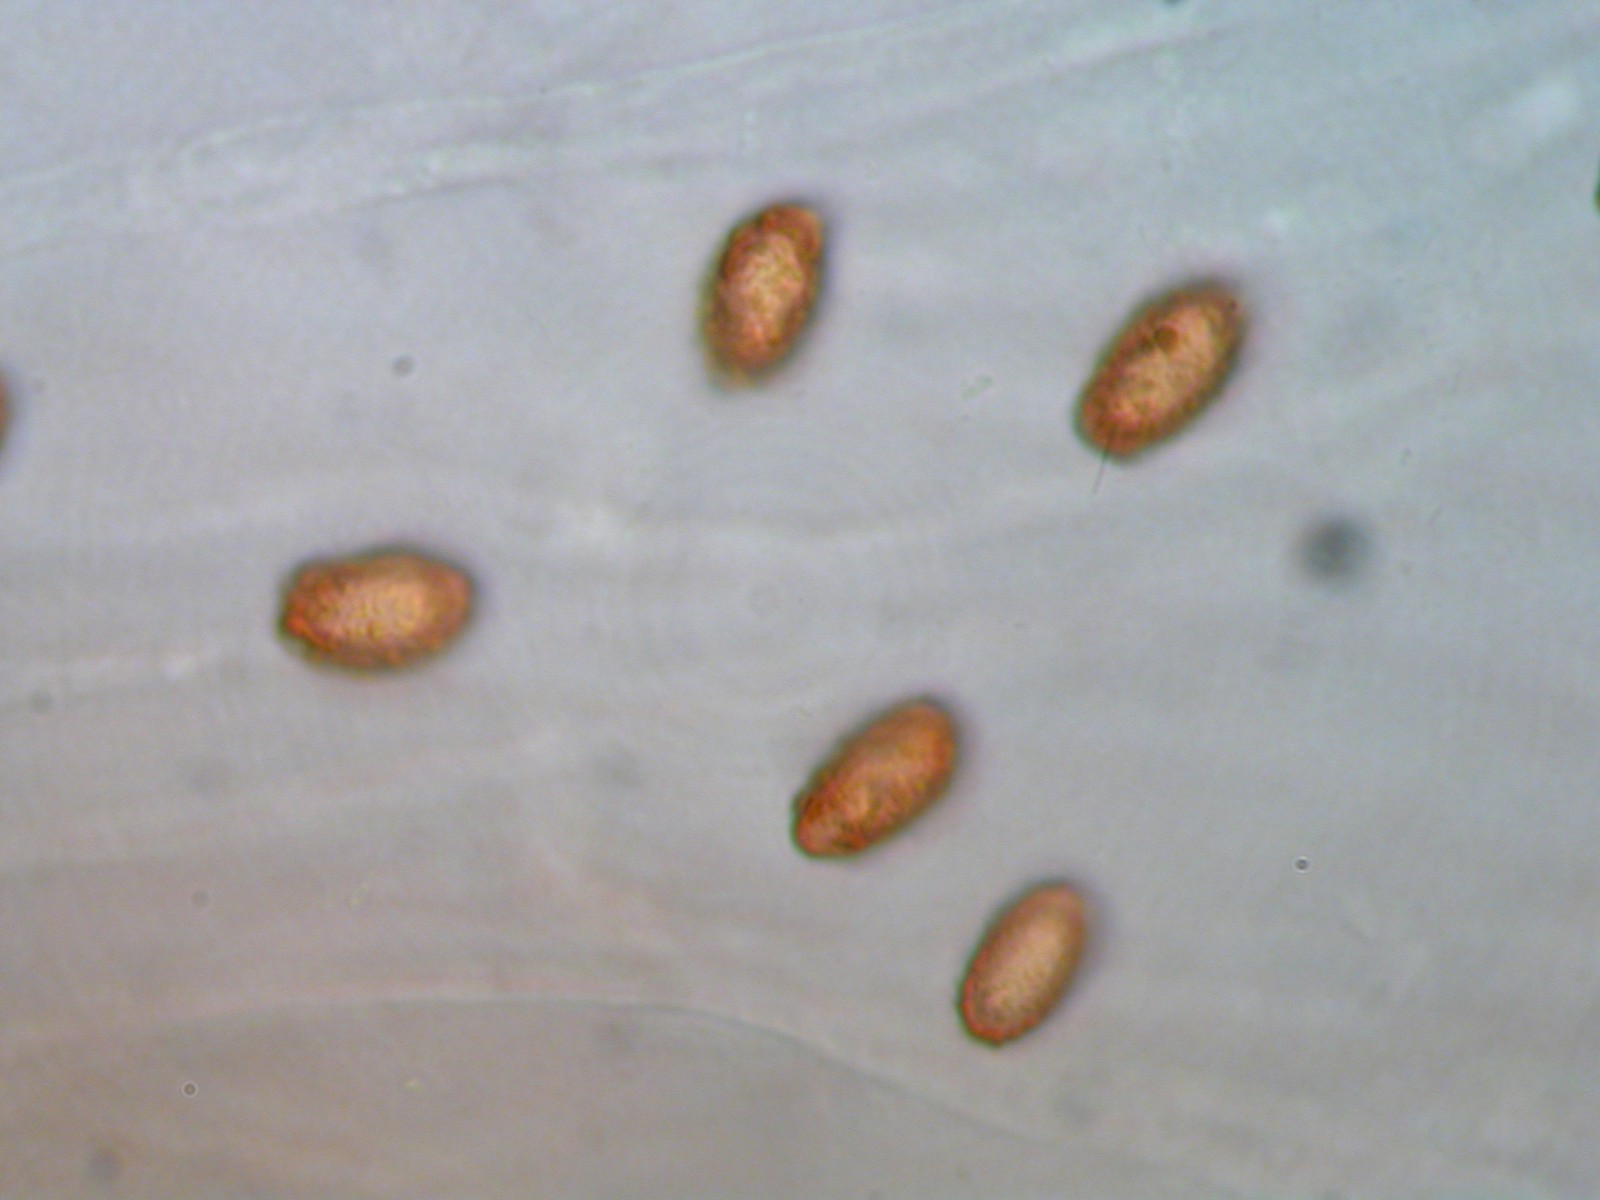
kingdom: Fungi
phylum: Basidiomycota
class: Agaricomycetes
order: Agaricales
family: Cortinariaceae
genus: Cortinarius
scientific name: Cortinarius trivialis
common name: brunslimet slørhat
